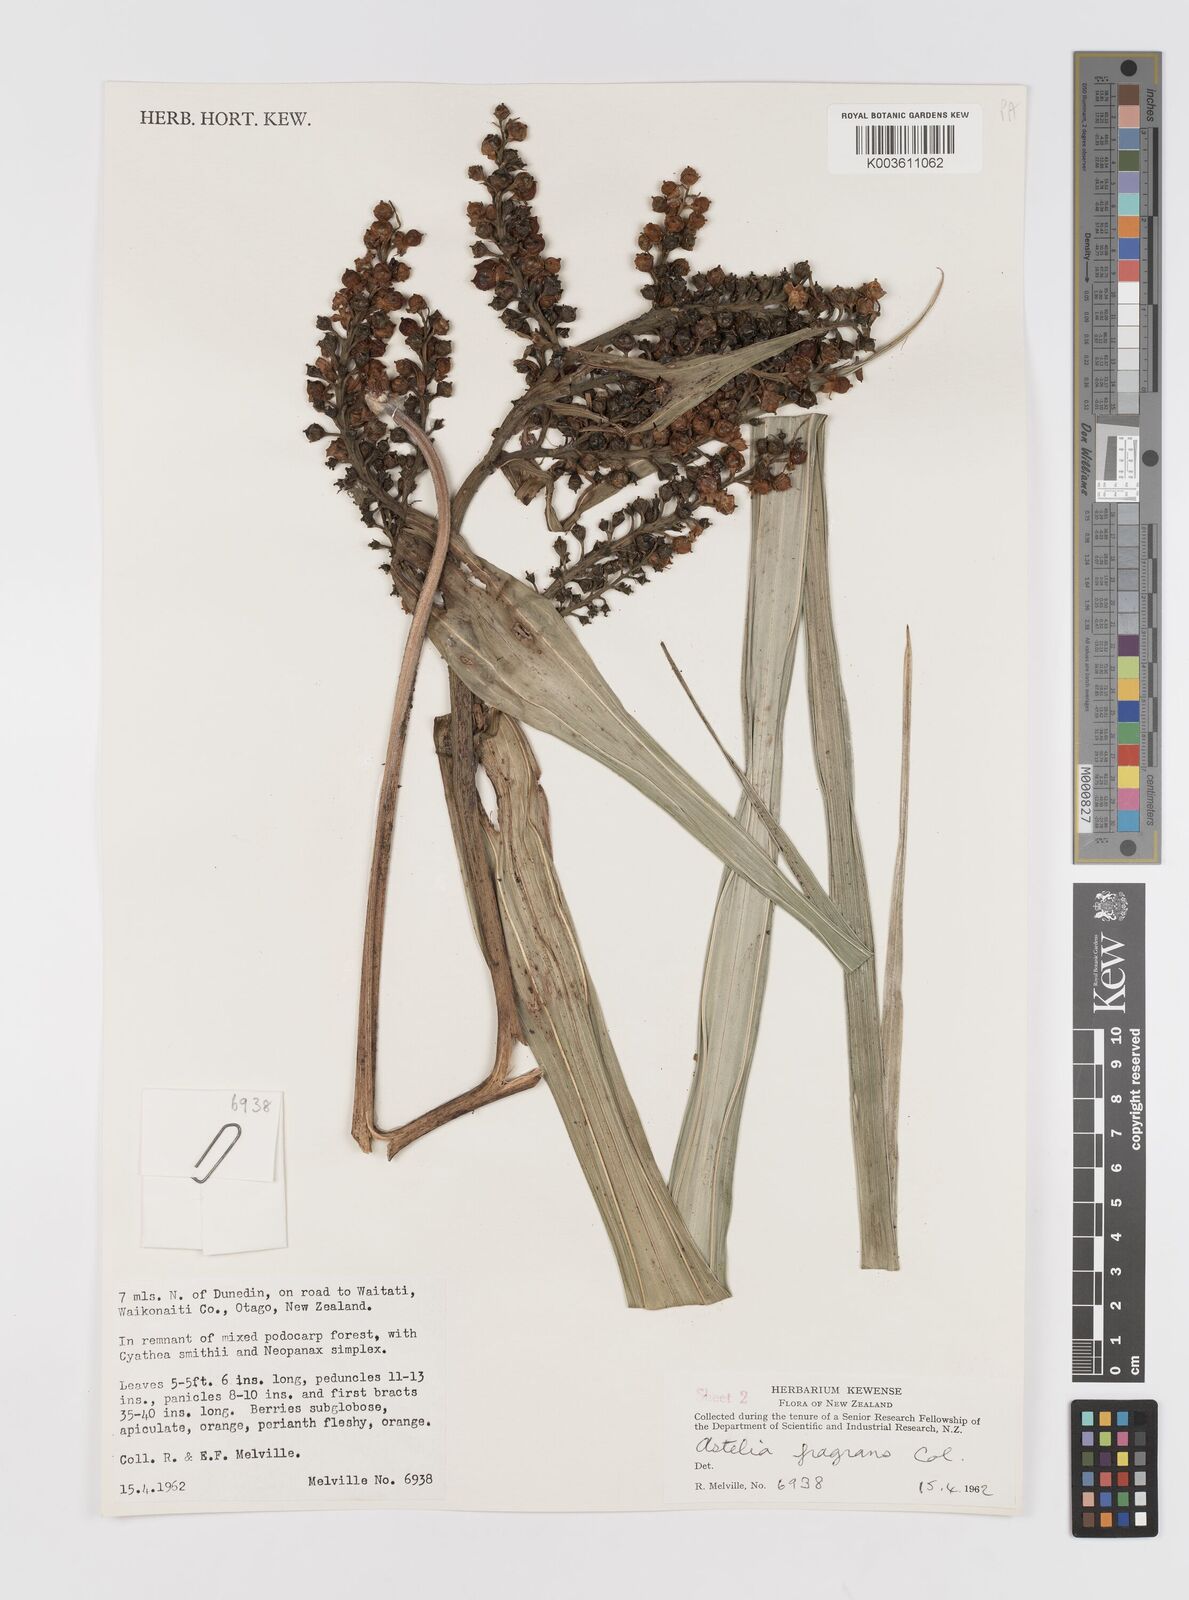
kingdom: Plantae
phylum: Tracheophyta
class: Liliopsida
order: Asparagales
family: Asteliaceae
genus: Astelia
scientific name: Astelia fragrans
